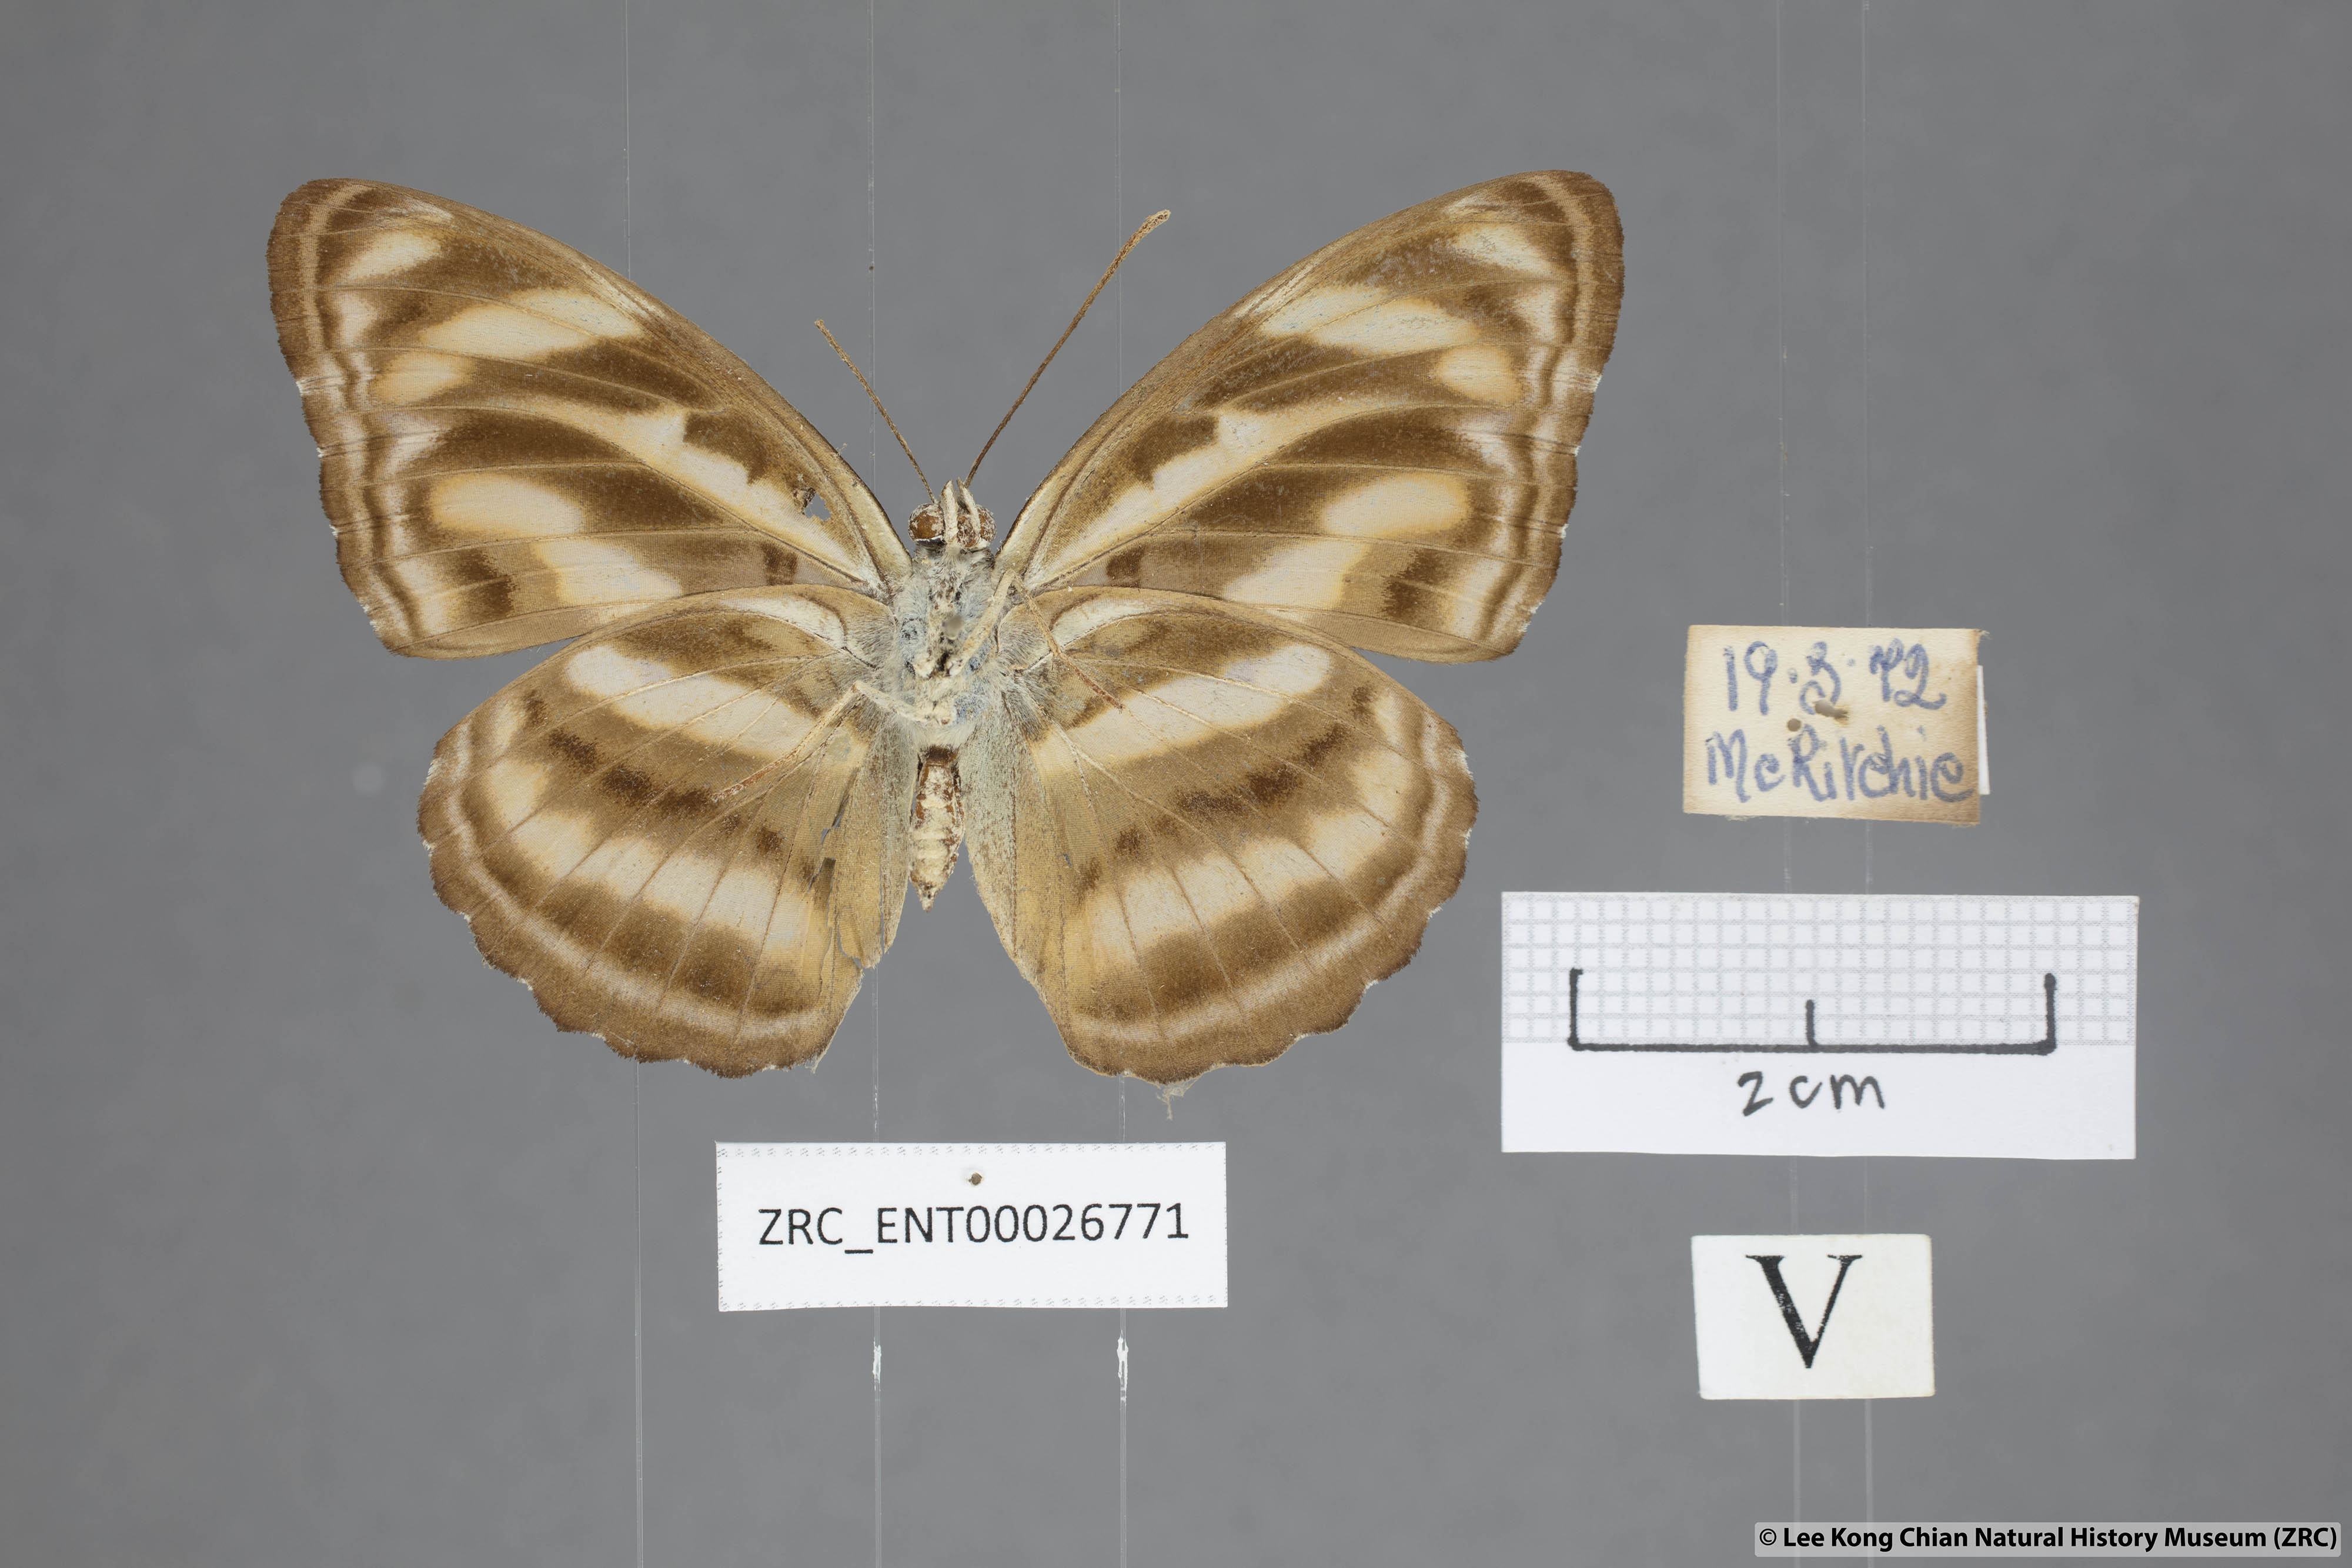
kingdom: Animalia
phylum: Arthropoda
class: Insecta
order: Lepidoptera
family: Nymphalidae
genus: Parathyma
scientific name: Parathyma nefte
